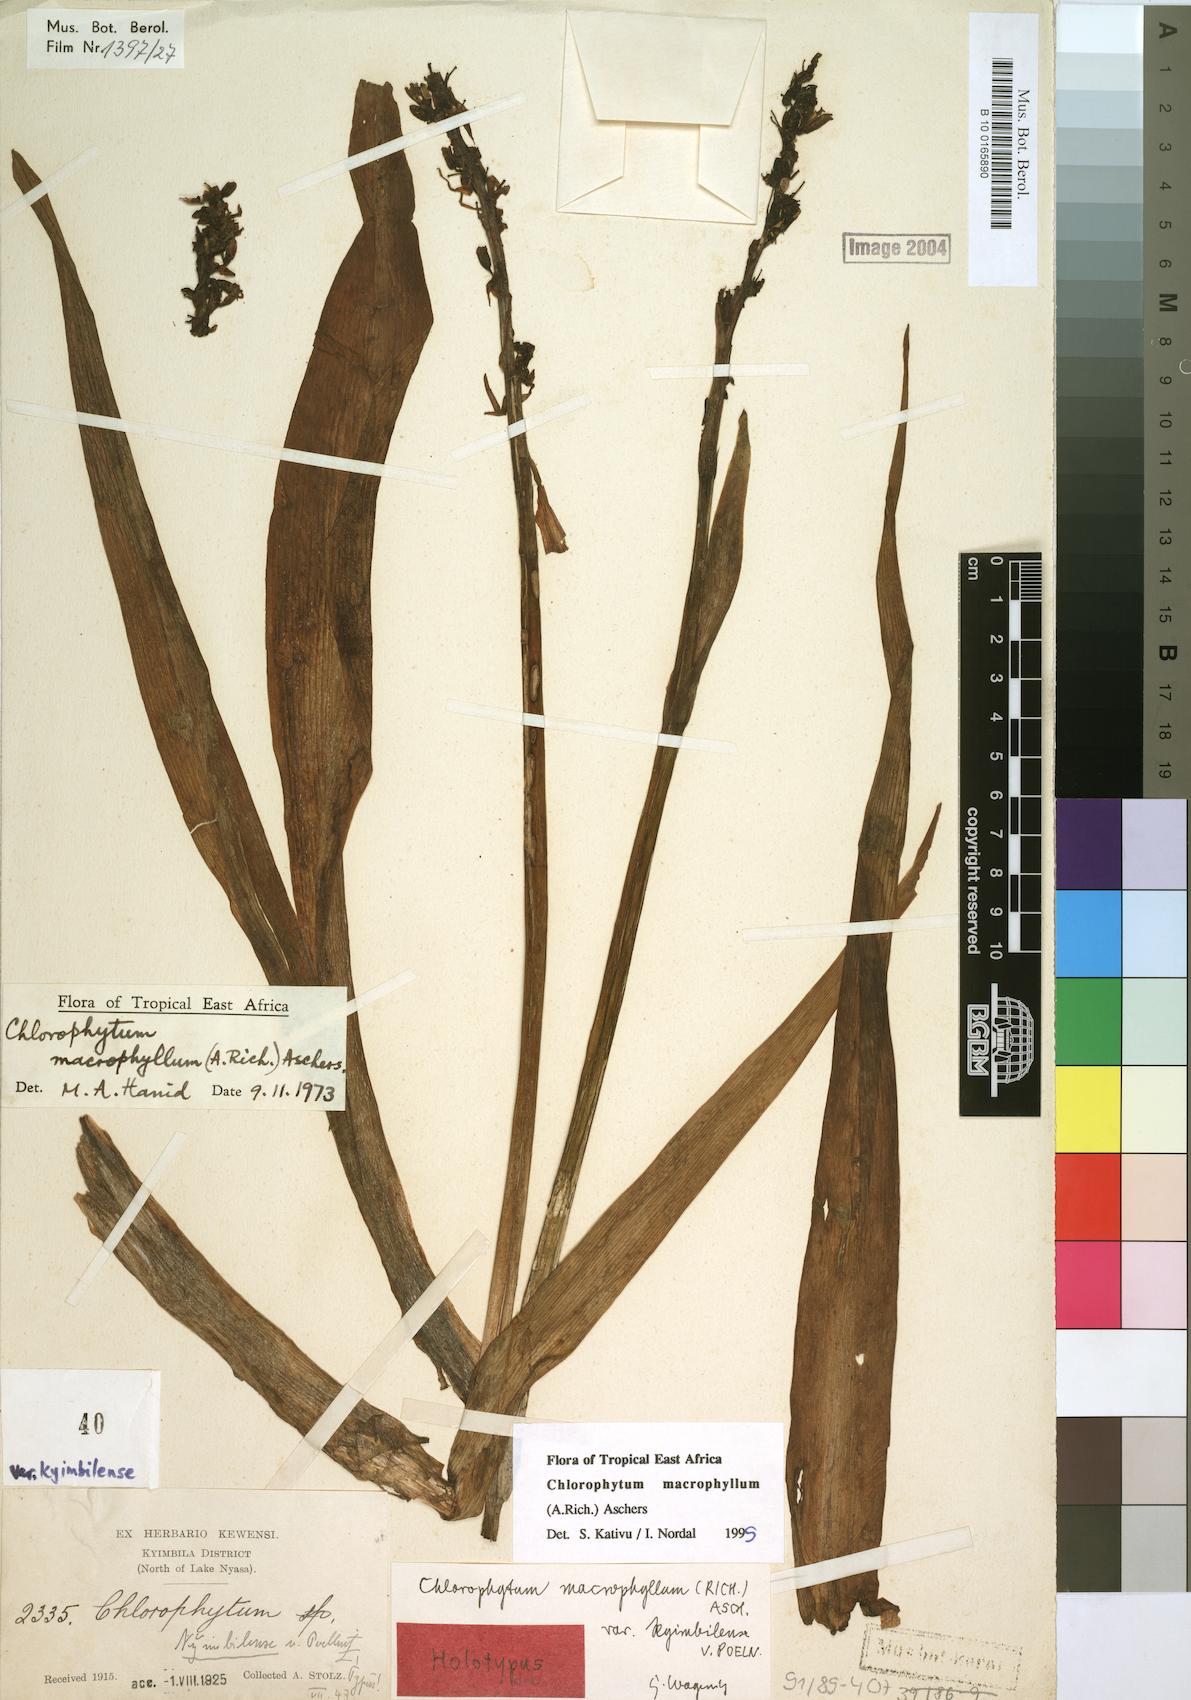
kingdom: Plantae
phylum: Tracheophyta
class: Liliopsida
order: Asparagales
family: Asparagaceae
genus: Chlorophytum
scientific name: Chlorophytum macrophyllum
